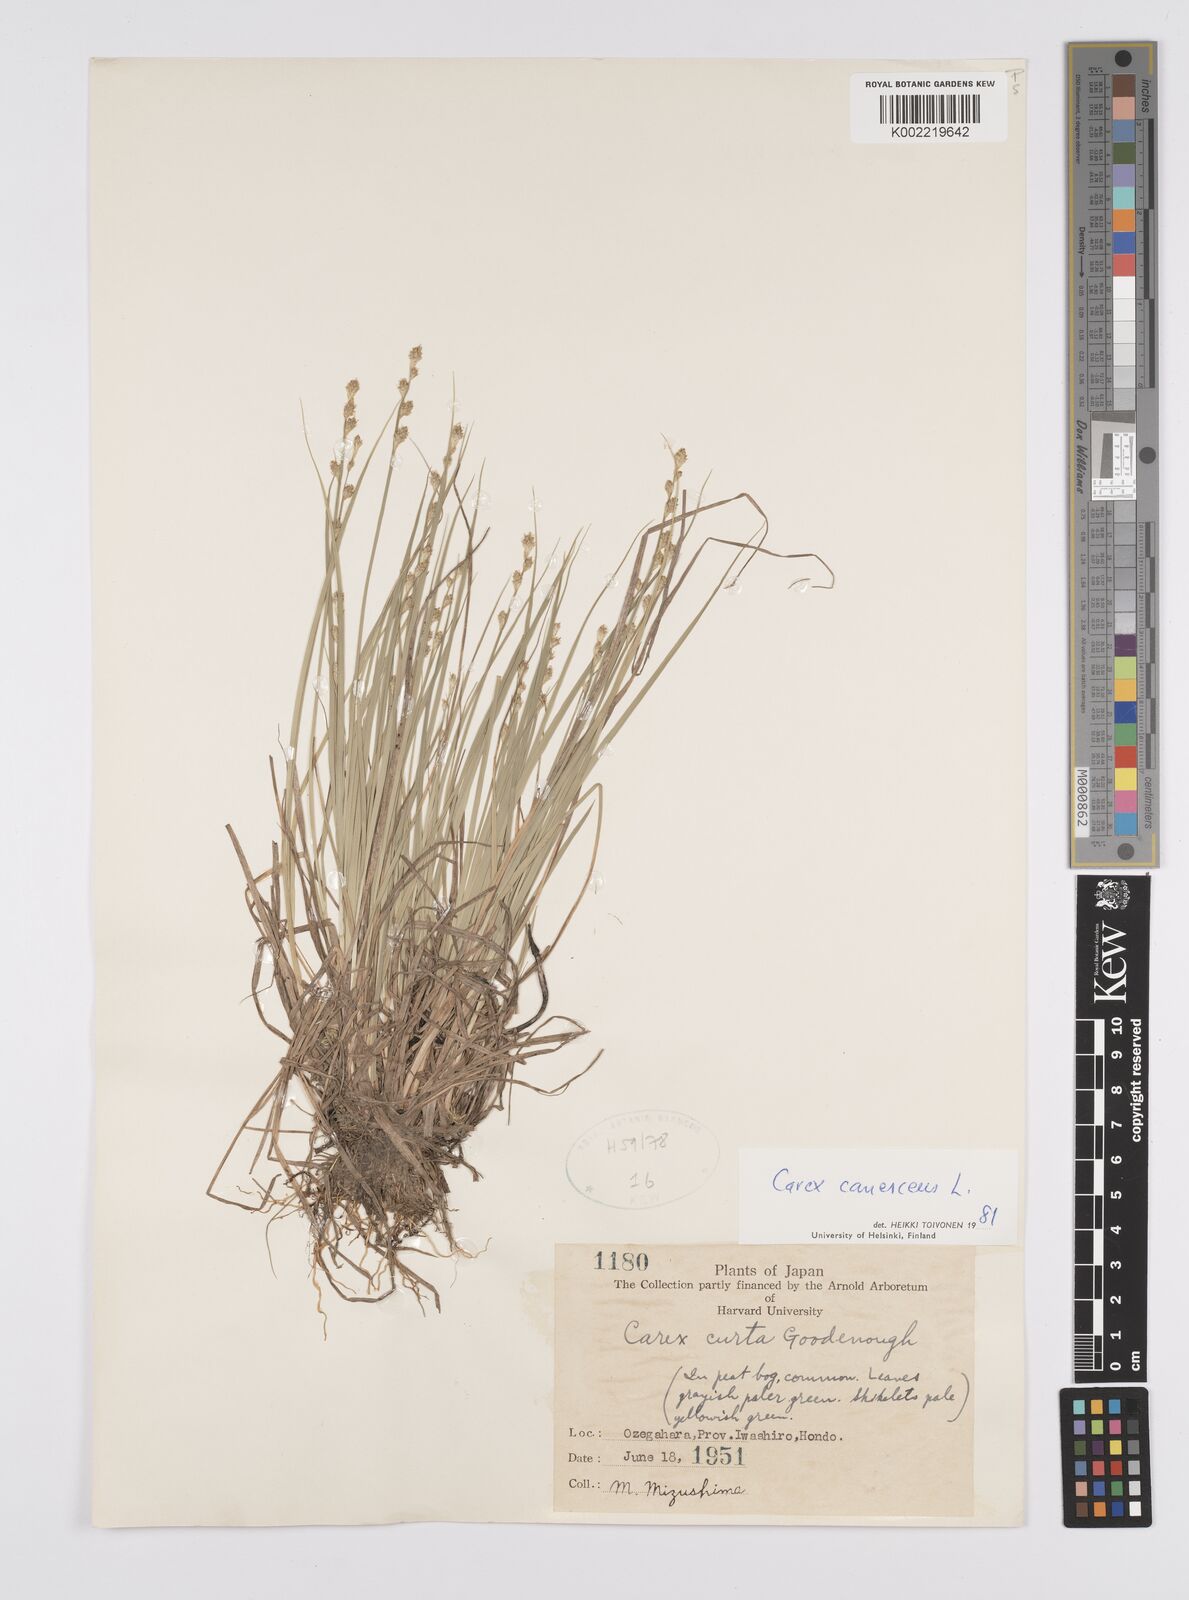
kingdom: Plantae
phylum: Tracheophyta
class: Liliopsida
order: Poales
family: Cyperaceae
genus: Carex
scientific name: Carex canescens
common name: White sedge
